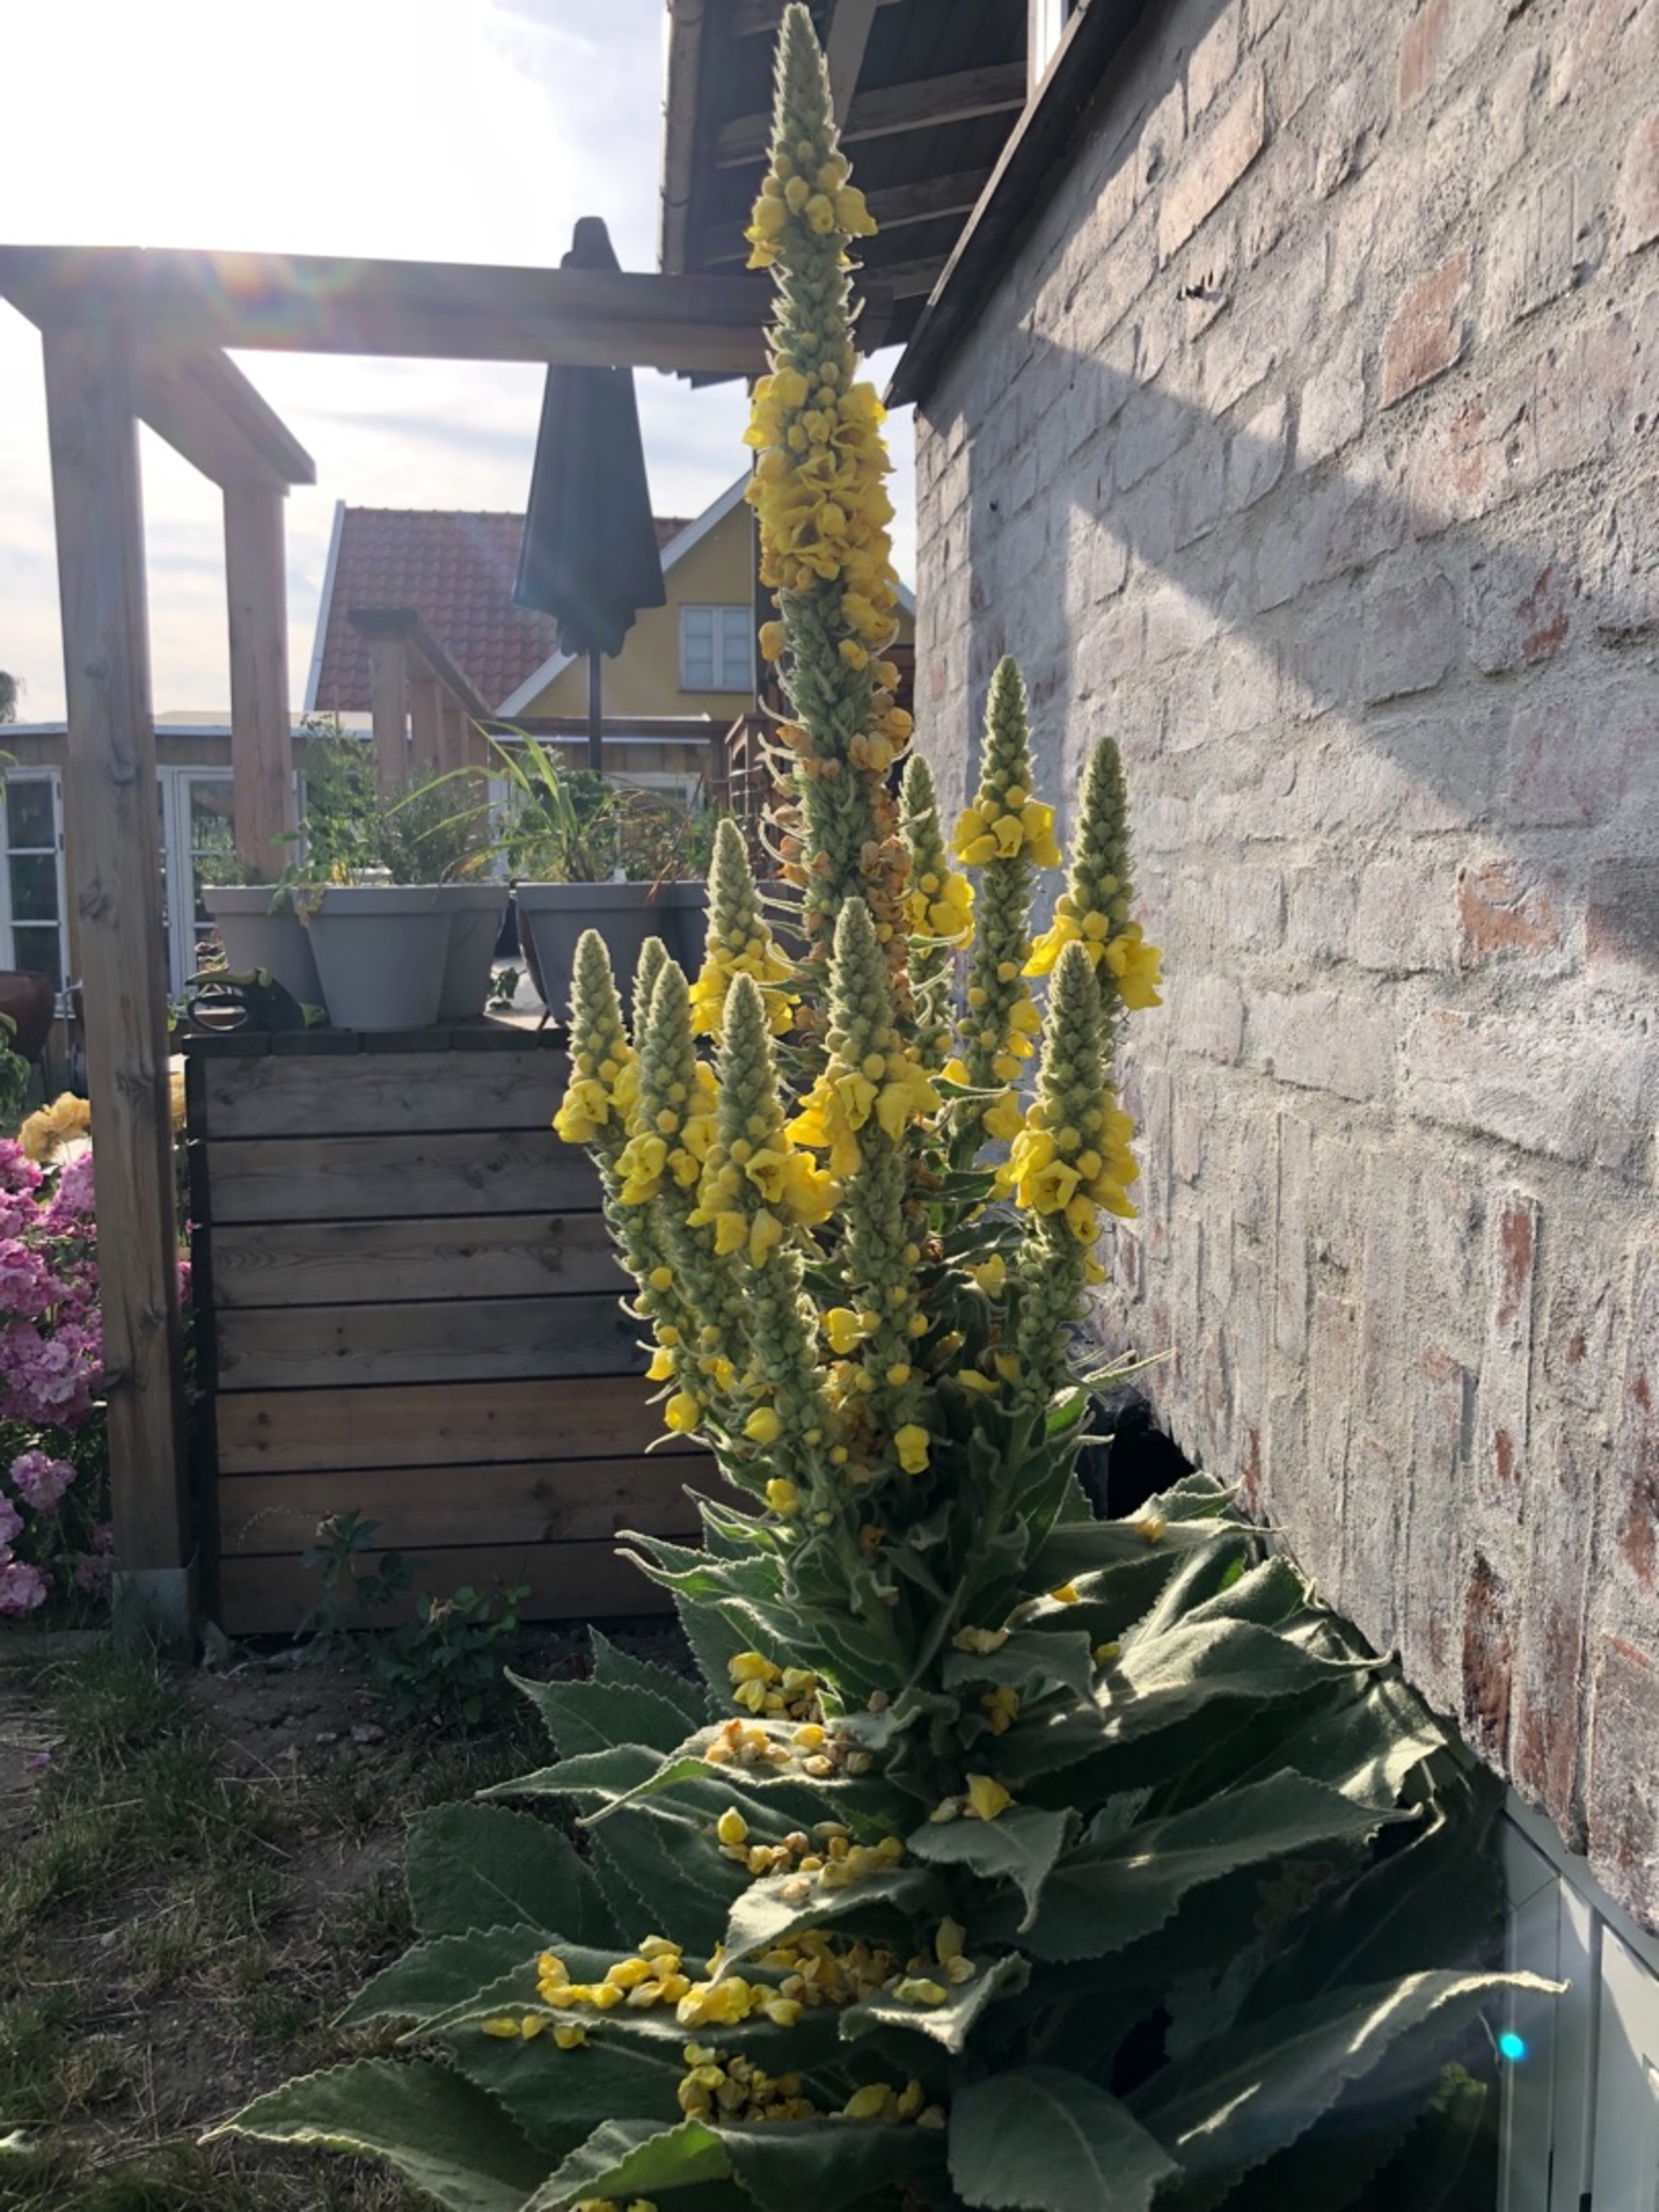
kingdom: Plantae
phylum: Tracheophyta
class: Magnoliopsida
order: Lamiales
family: Scrophulariaceae
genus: Verbascum
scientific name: Verbascum speciosum
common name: Kandelaber-kongelys
